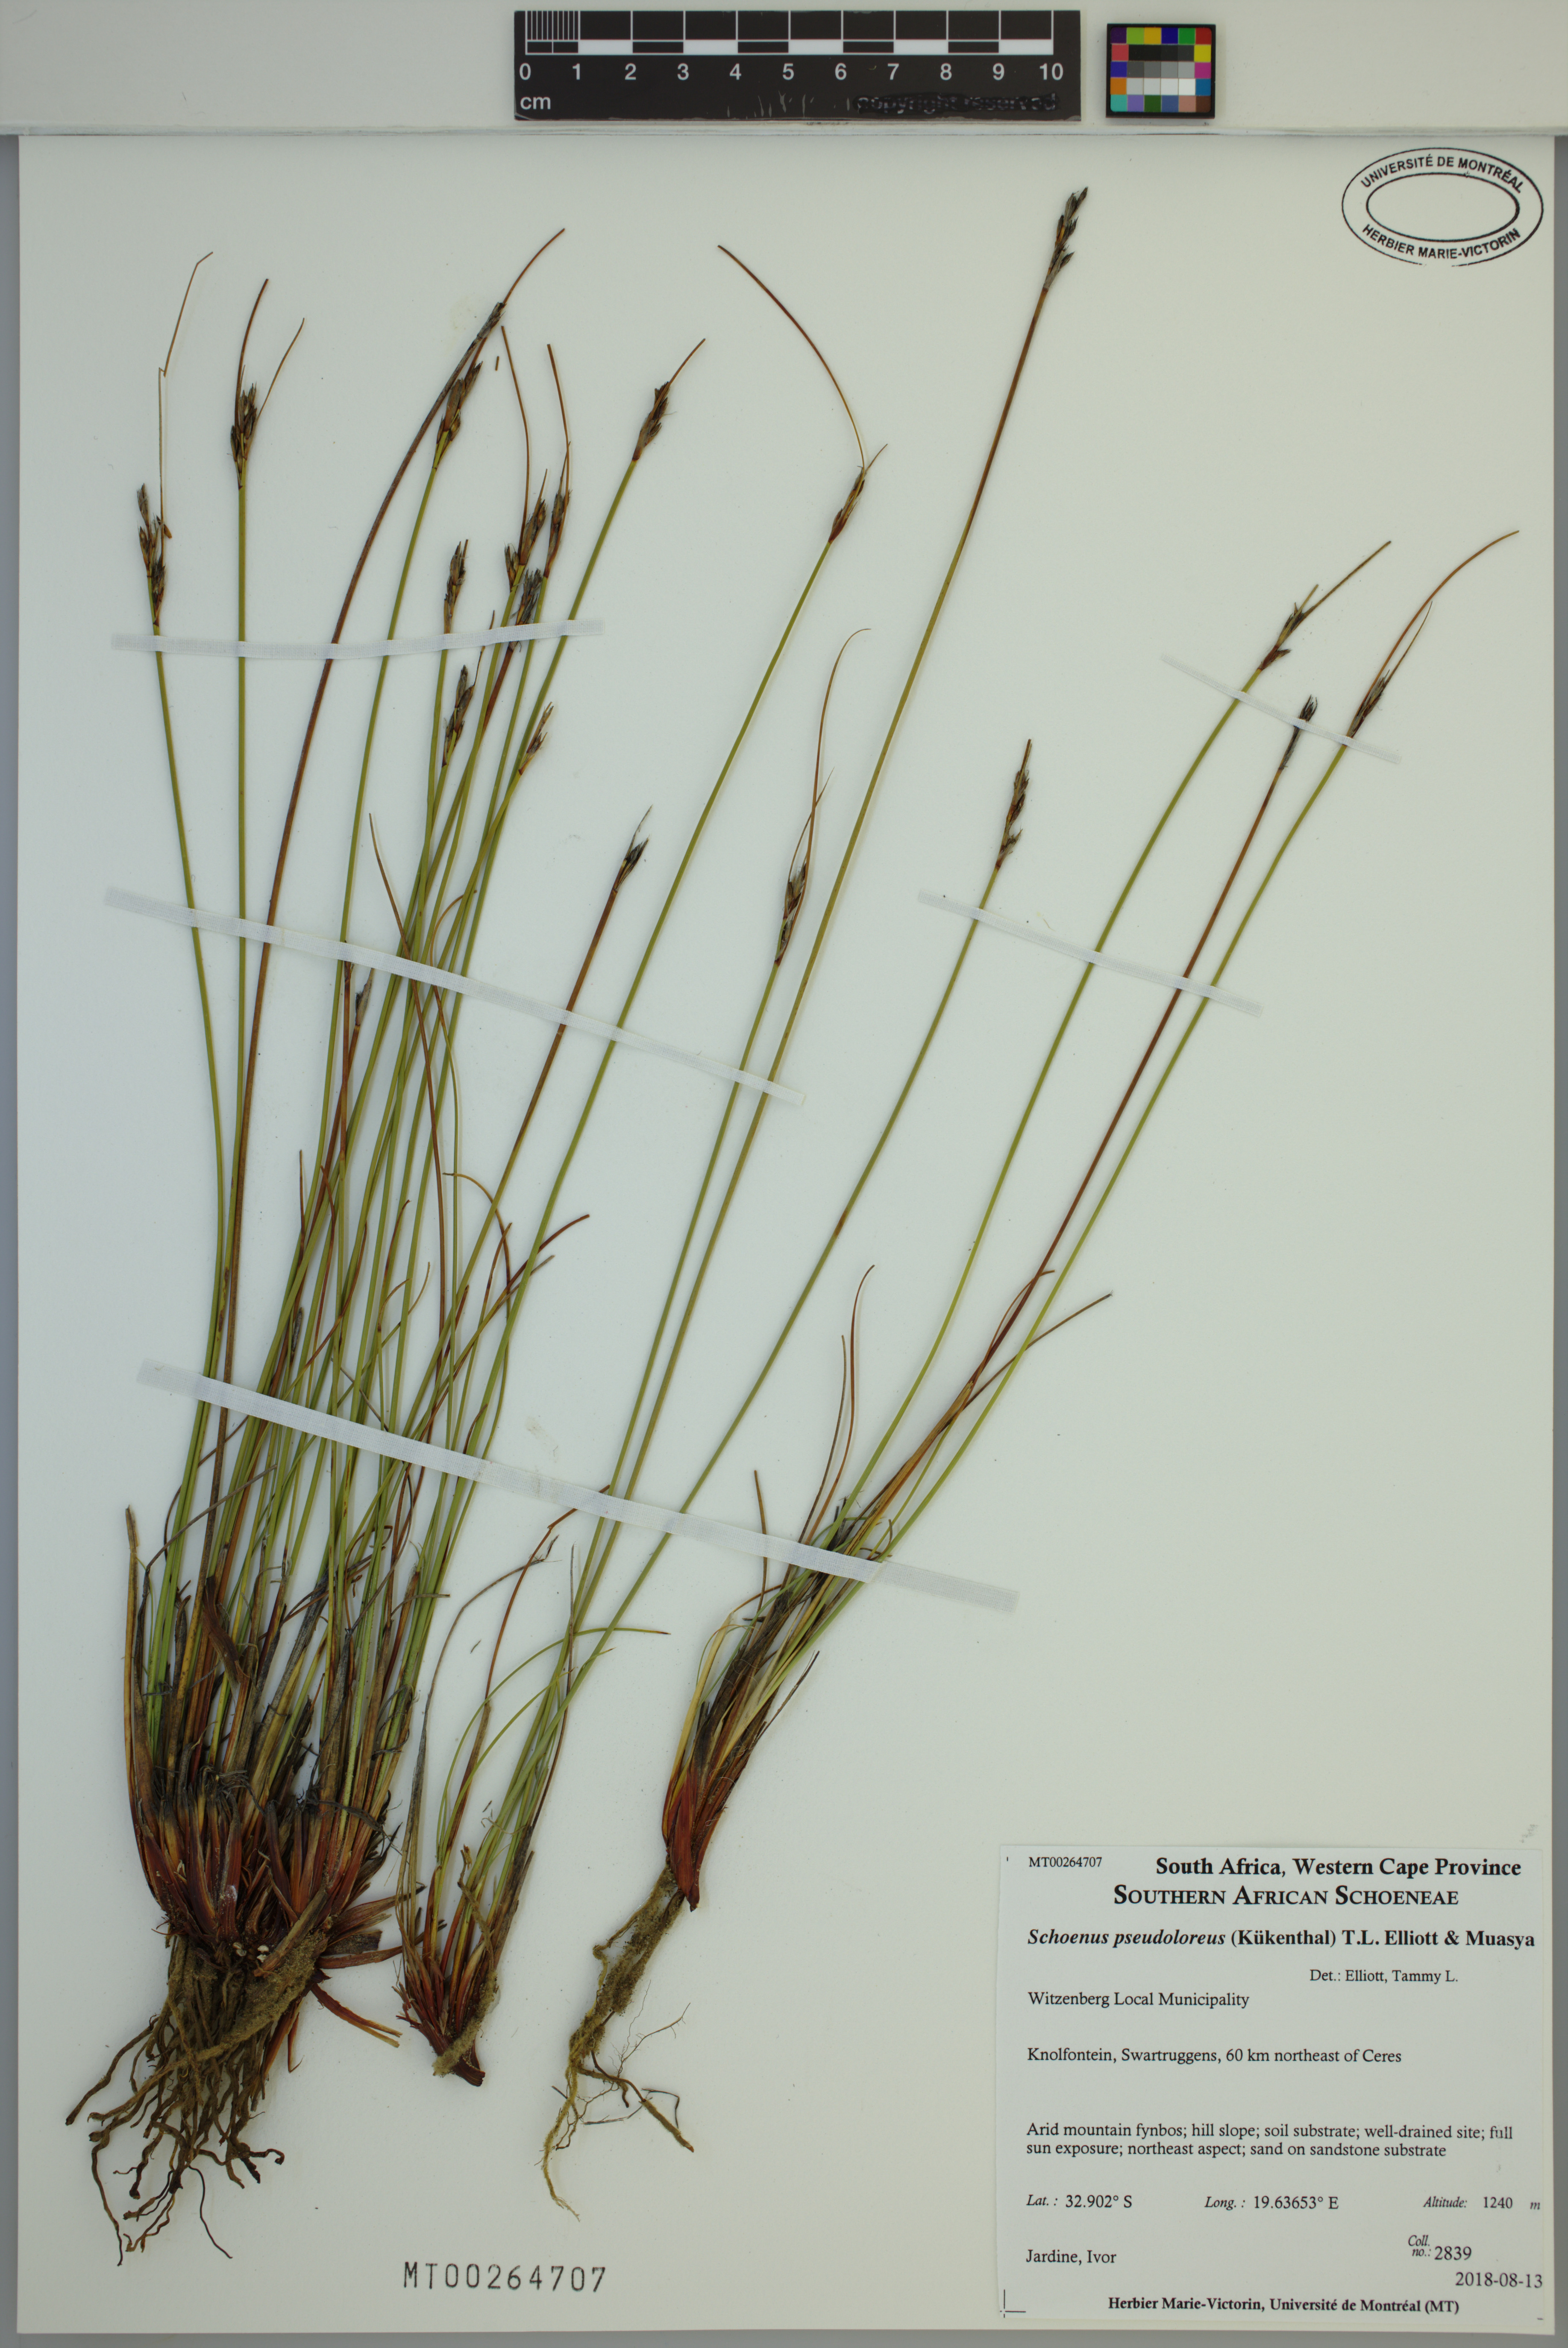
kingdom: Plantae
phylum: Tracheophyta
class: Liliopsida
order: Poales
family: Cyperaceae
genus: Schoenus
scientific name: Schoenus pseudoloreus
